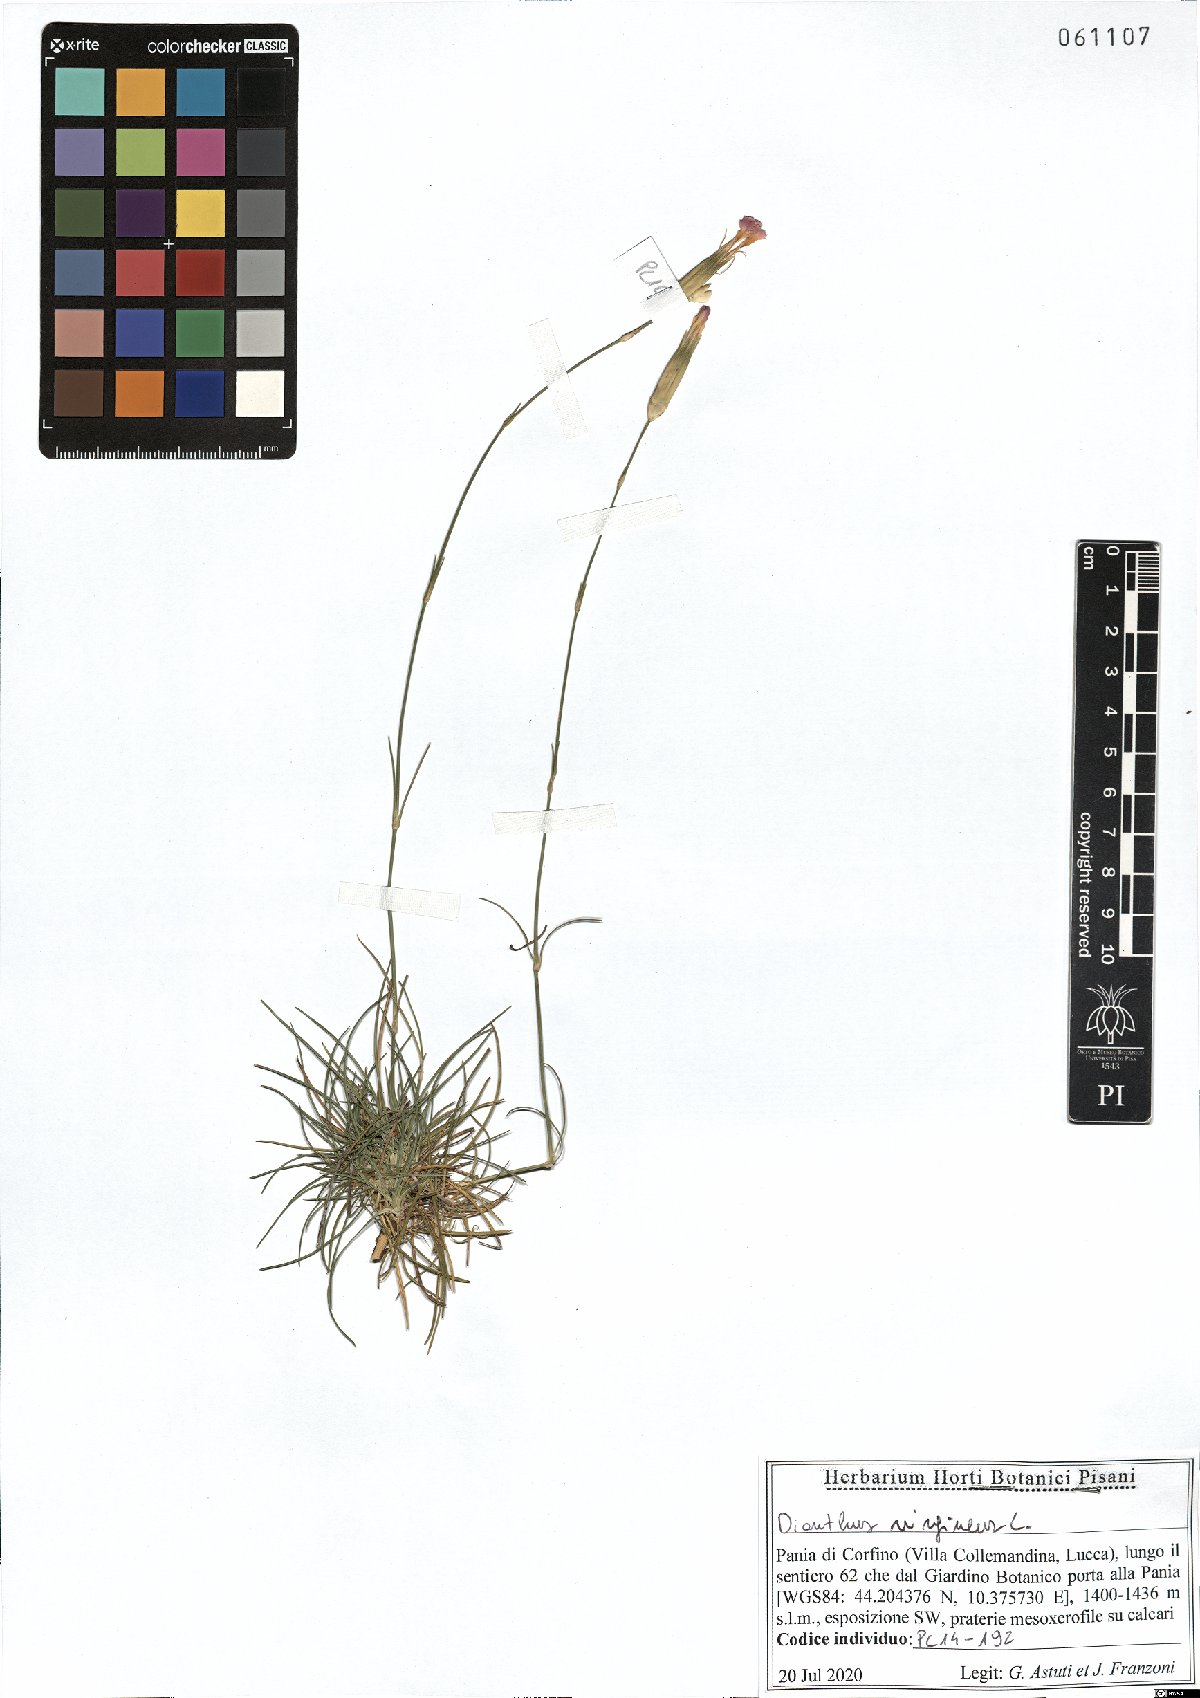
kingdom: Plantae
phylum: Tracheophyta
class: Magnoliopsida
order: Caryophyllales
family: Caryophyllaceae
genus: Dianthus
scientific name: Dianthus virgineus
